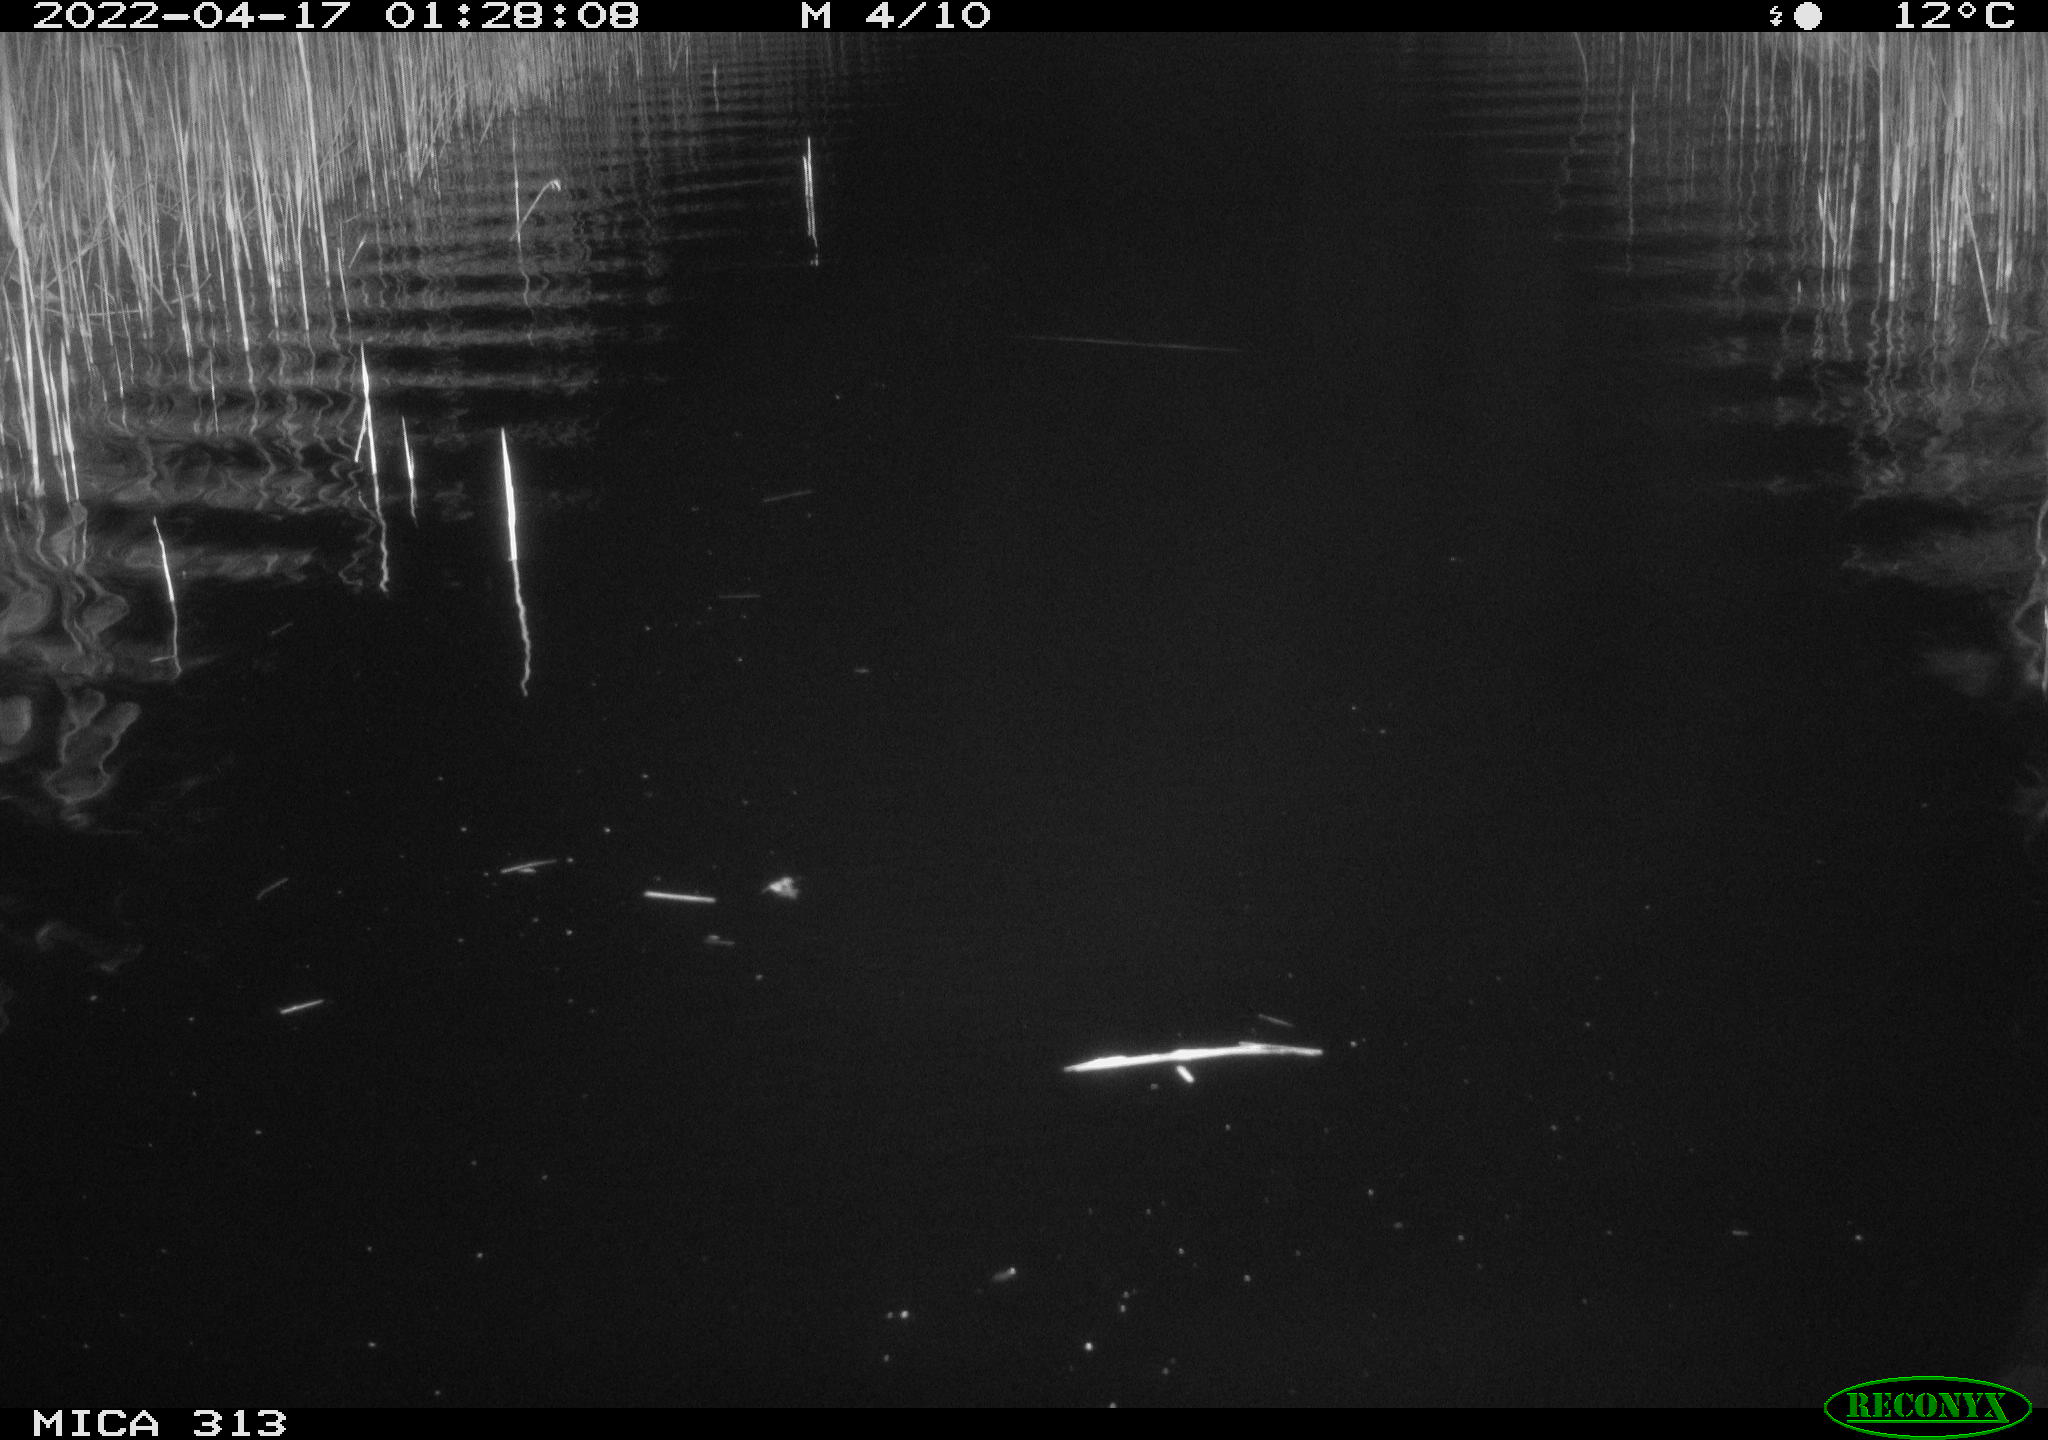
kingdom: Animalia
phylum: Chordata
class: Aves
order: Anseriformes
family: Anatidae
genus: Anas
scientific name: Anas platyrhynchos
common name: Mallard
